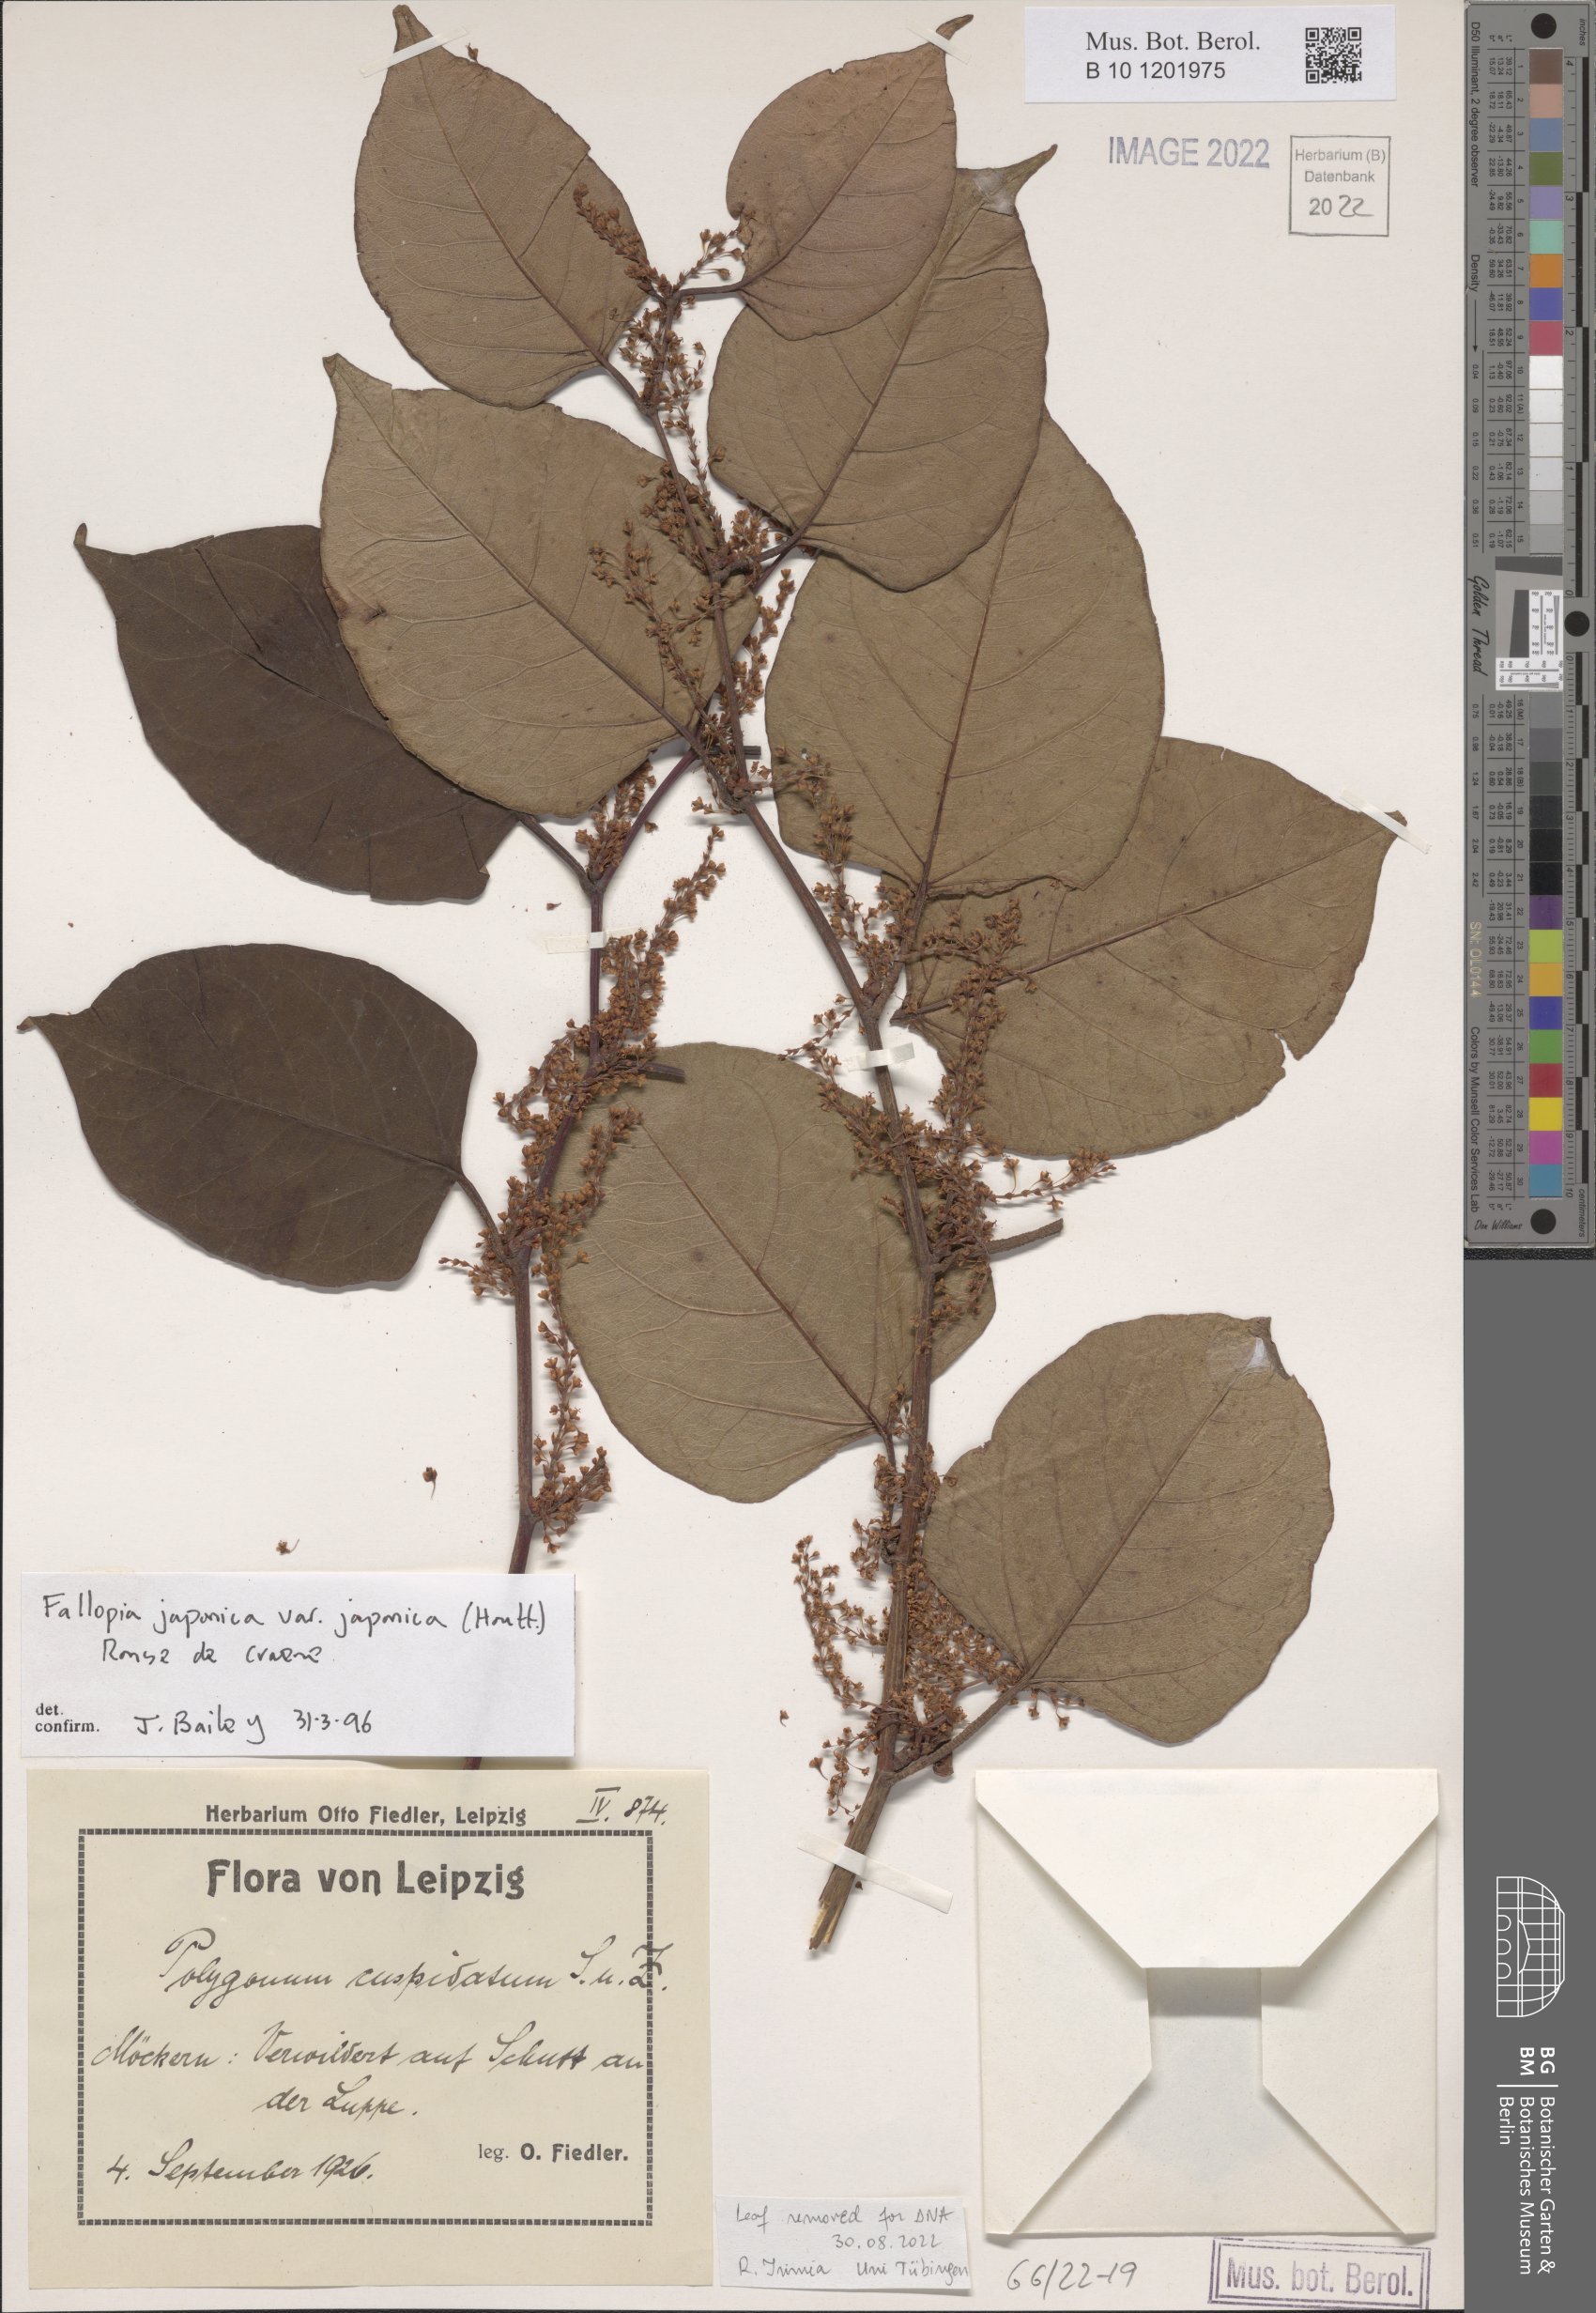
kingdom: Plantae
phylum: Tracheophyta
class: Magnoliopsida
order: Caryophyllales
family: Polygonaceae
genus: Reynoutria
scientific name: Reynoutria japonica
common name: Japanese knotweed
